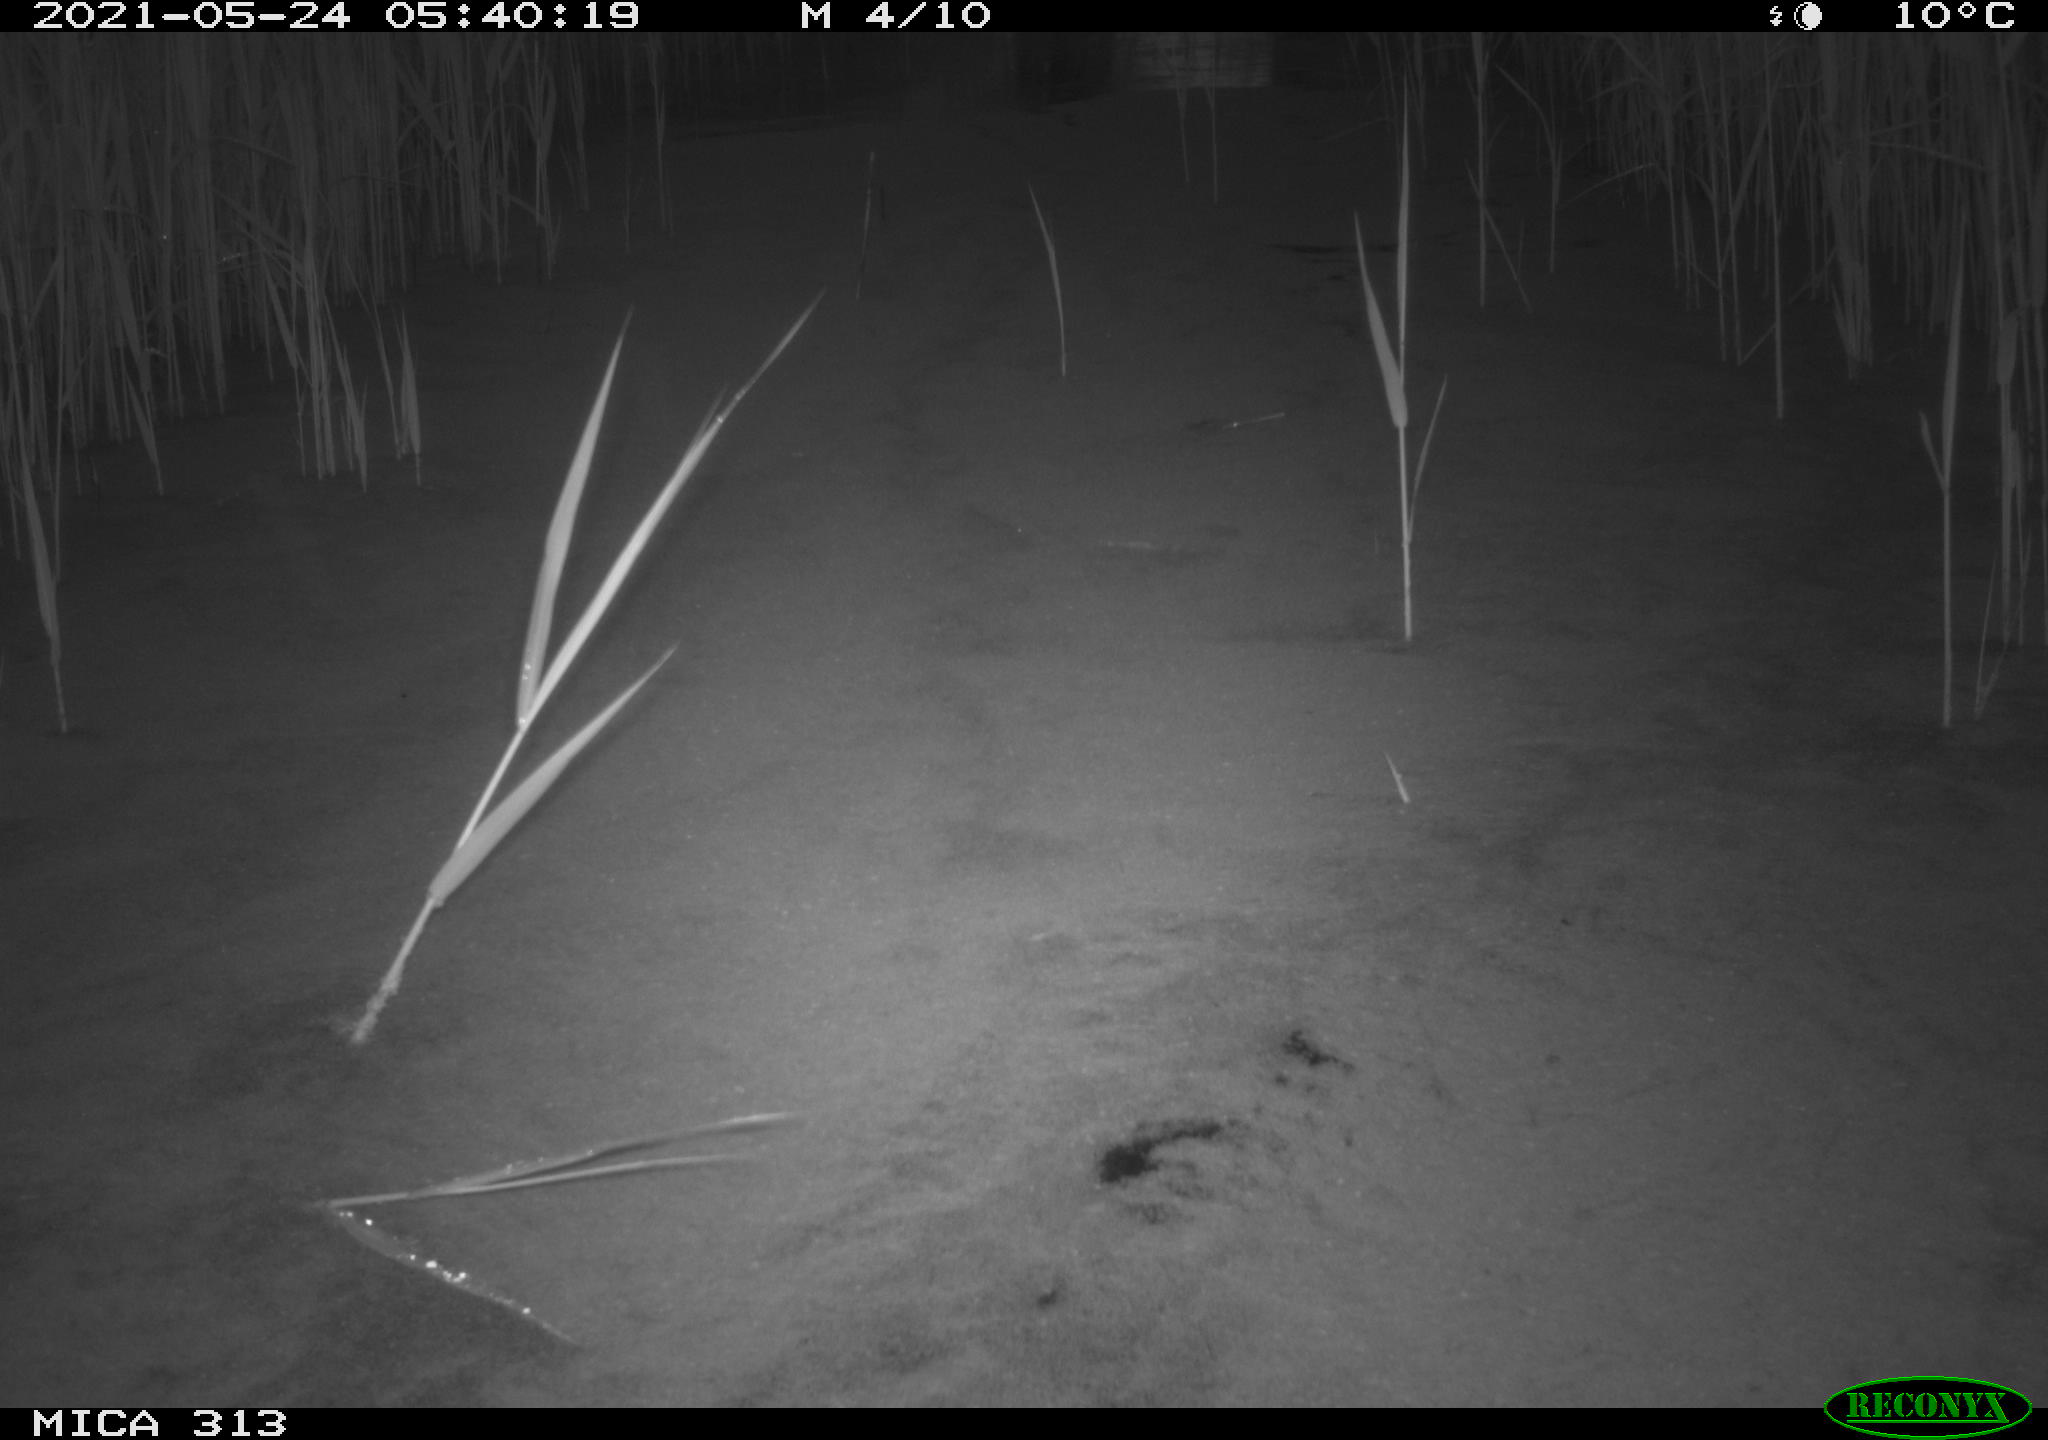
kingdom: Animalia
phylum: Chordata
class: Aves
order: Gruiformes
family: Rallidae
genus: Gallinula
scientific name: Gallinula chloropus
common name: Common moorhen
